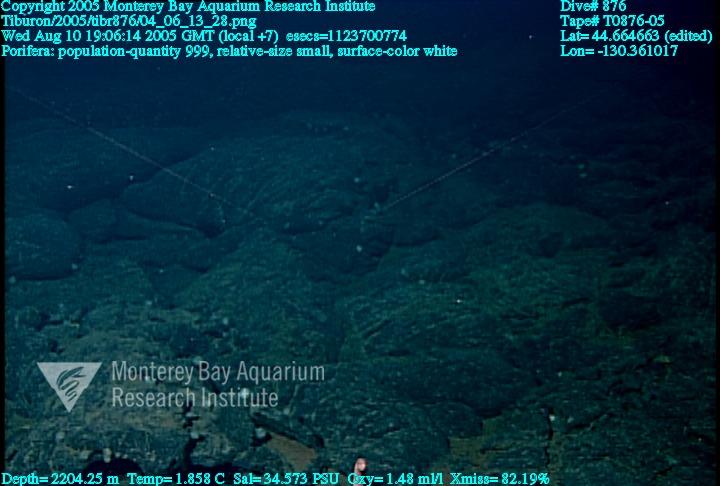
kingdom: Animalia
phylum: Porifera
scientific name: Porifera
